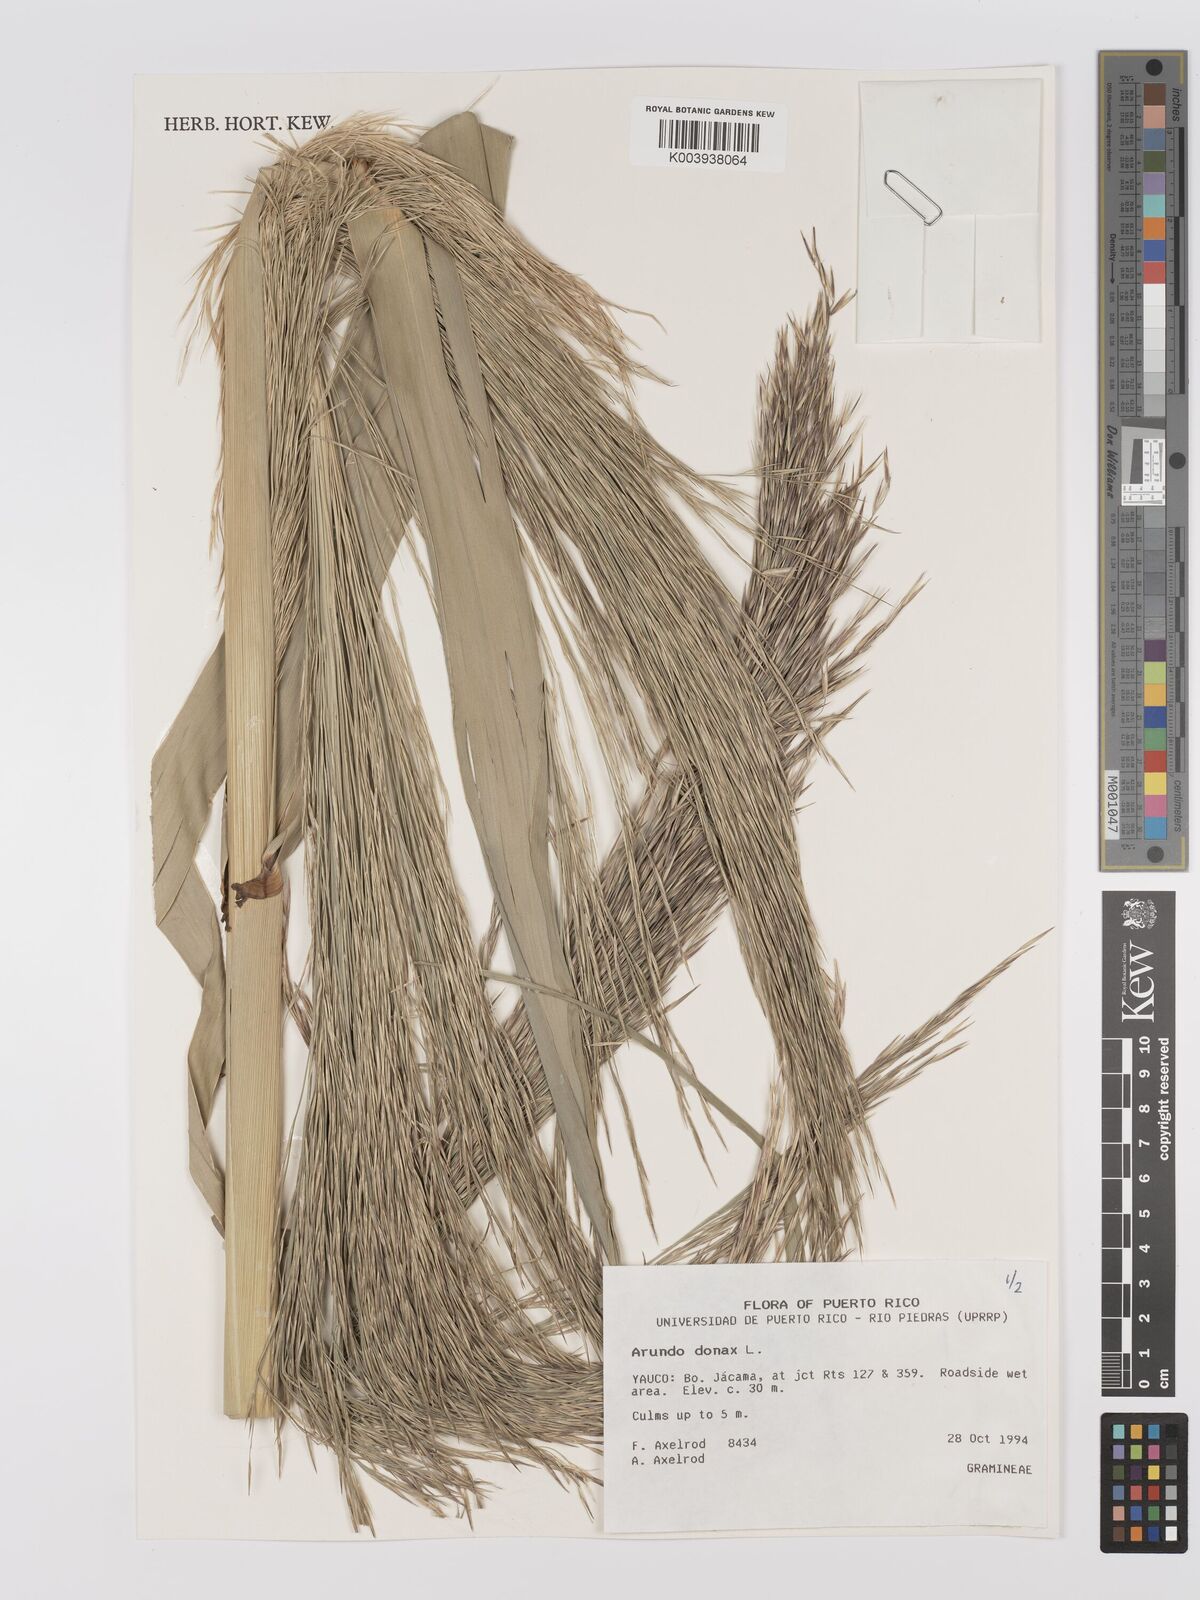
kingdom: Plantae
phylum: Tracheophyta
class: Liliopsida
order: Poales
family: Poaceae
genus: Arundo
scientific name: Arundo donax
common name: Giant reed
